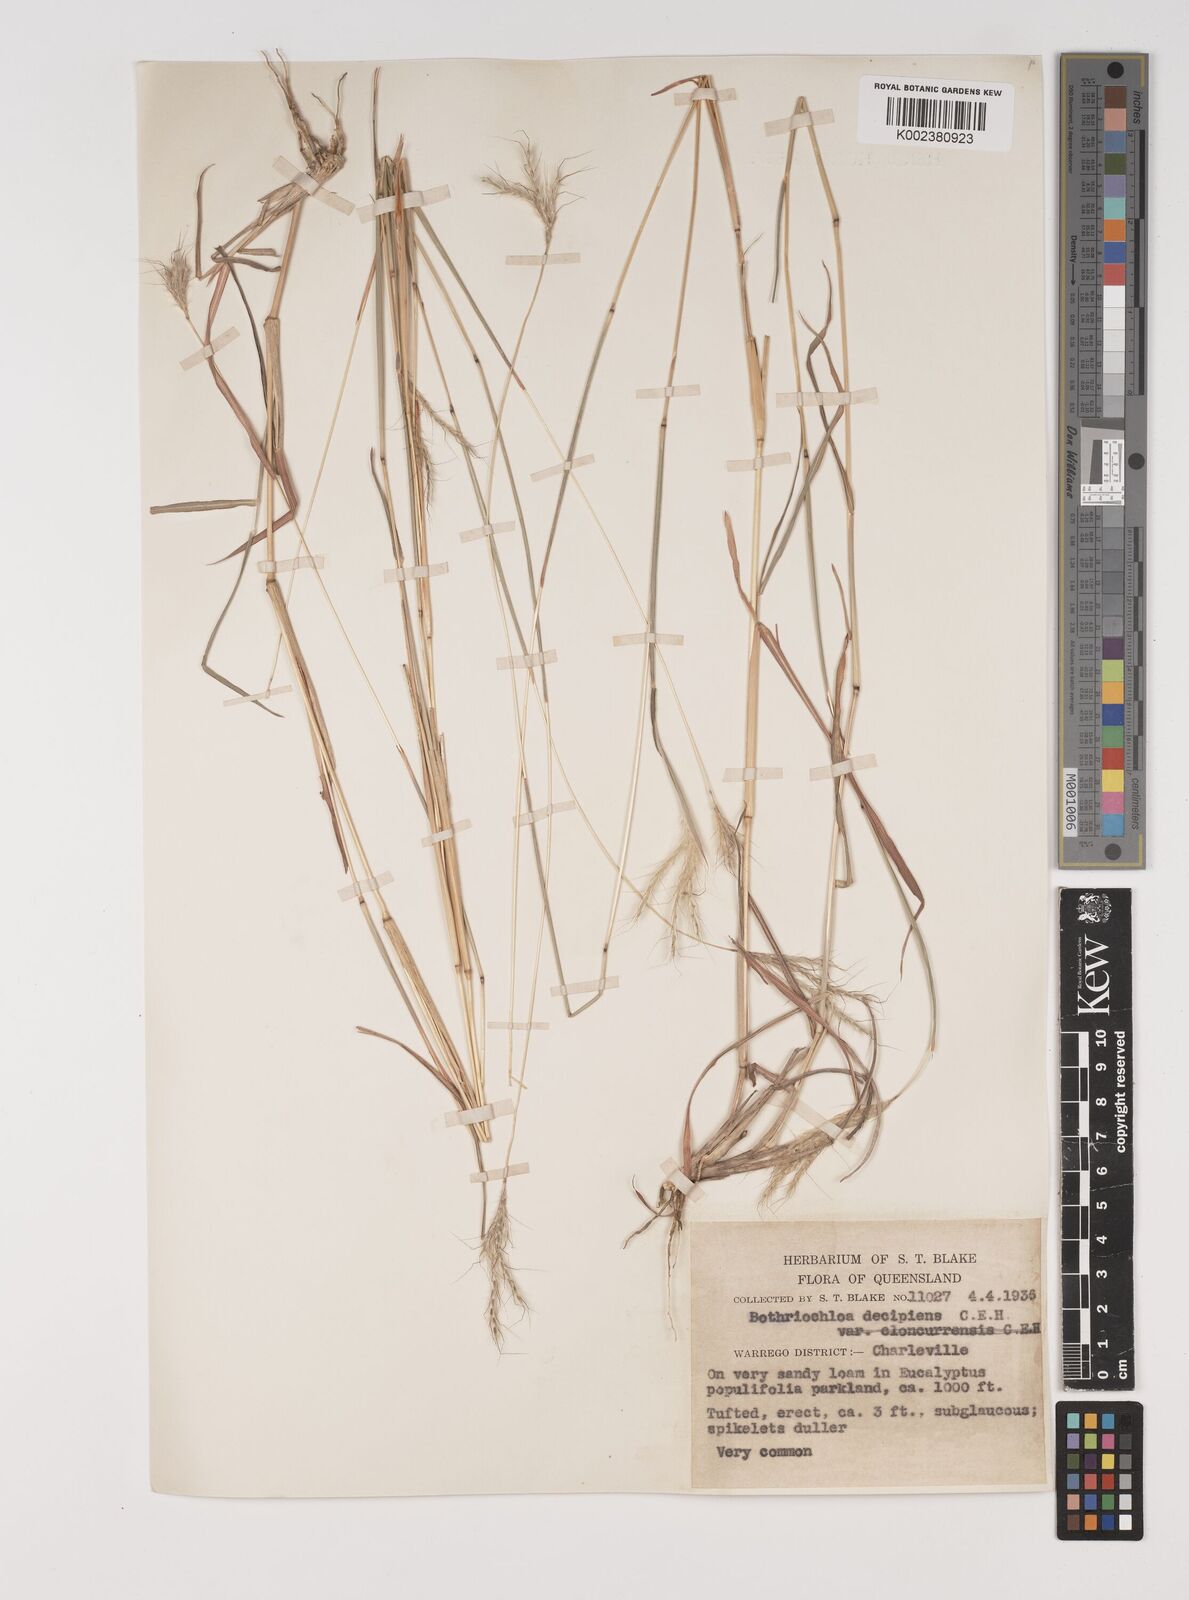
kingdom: Plantae
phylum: Tracheophyta
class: Liliopsida
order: Poales
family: Poaceae
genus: Bothriochloa
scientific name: Bothriochloa decipiens
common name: Pitted-bluegrass
